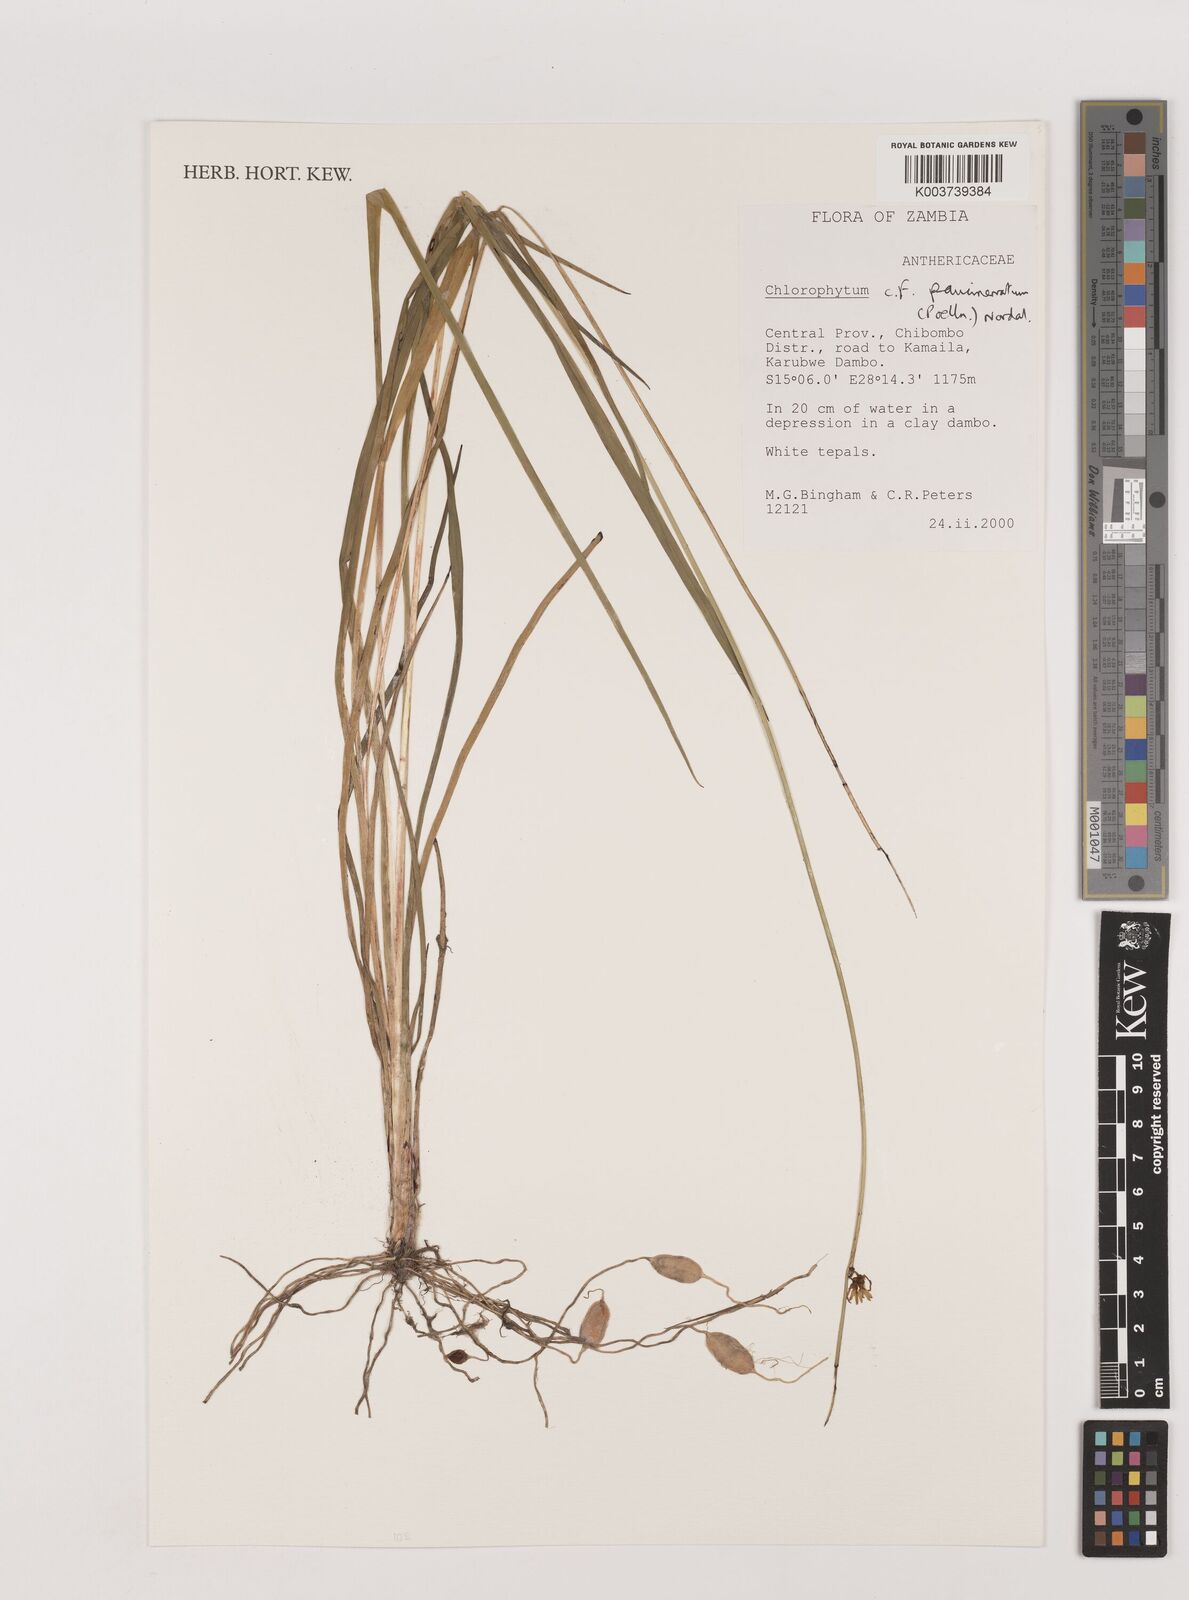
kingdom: Plantae
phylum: Tracheophyta
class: Liliopsida
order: Asparagales
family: Asparagaceae
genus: Chlorophytum
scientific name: Chlorophytum paucinervatum
